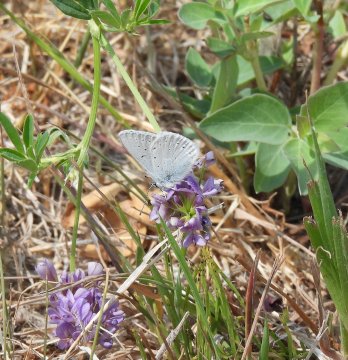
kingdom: Animalia
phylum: Arthropoda
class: Insecta
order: Lepidoptera
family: Lycaenidae
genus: Plebejus
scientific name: Plebejus saepiolus
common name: Greenish Blue
